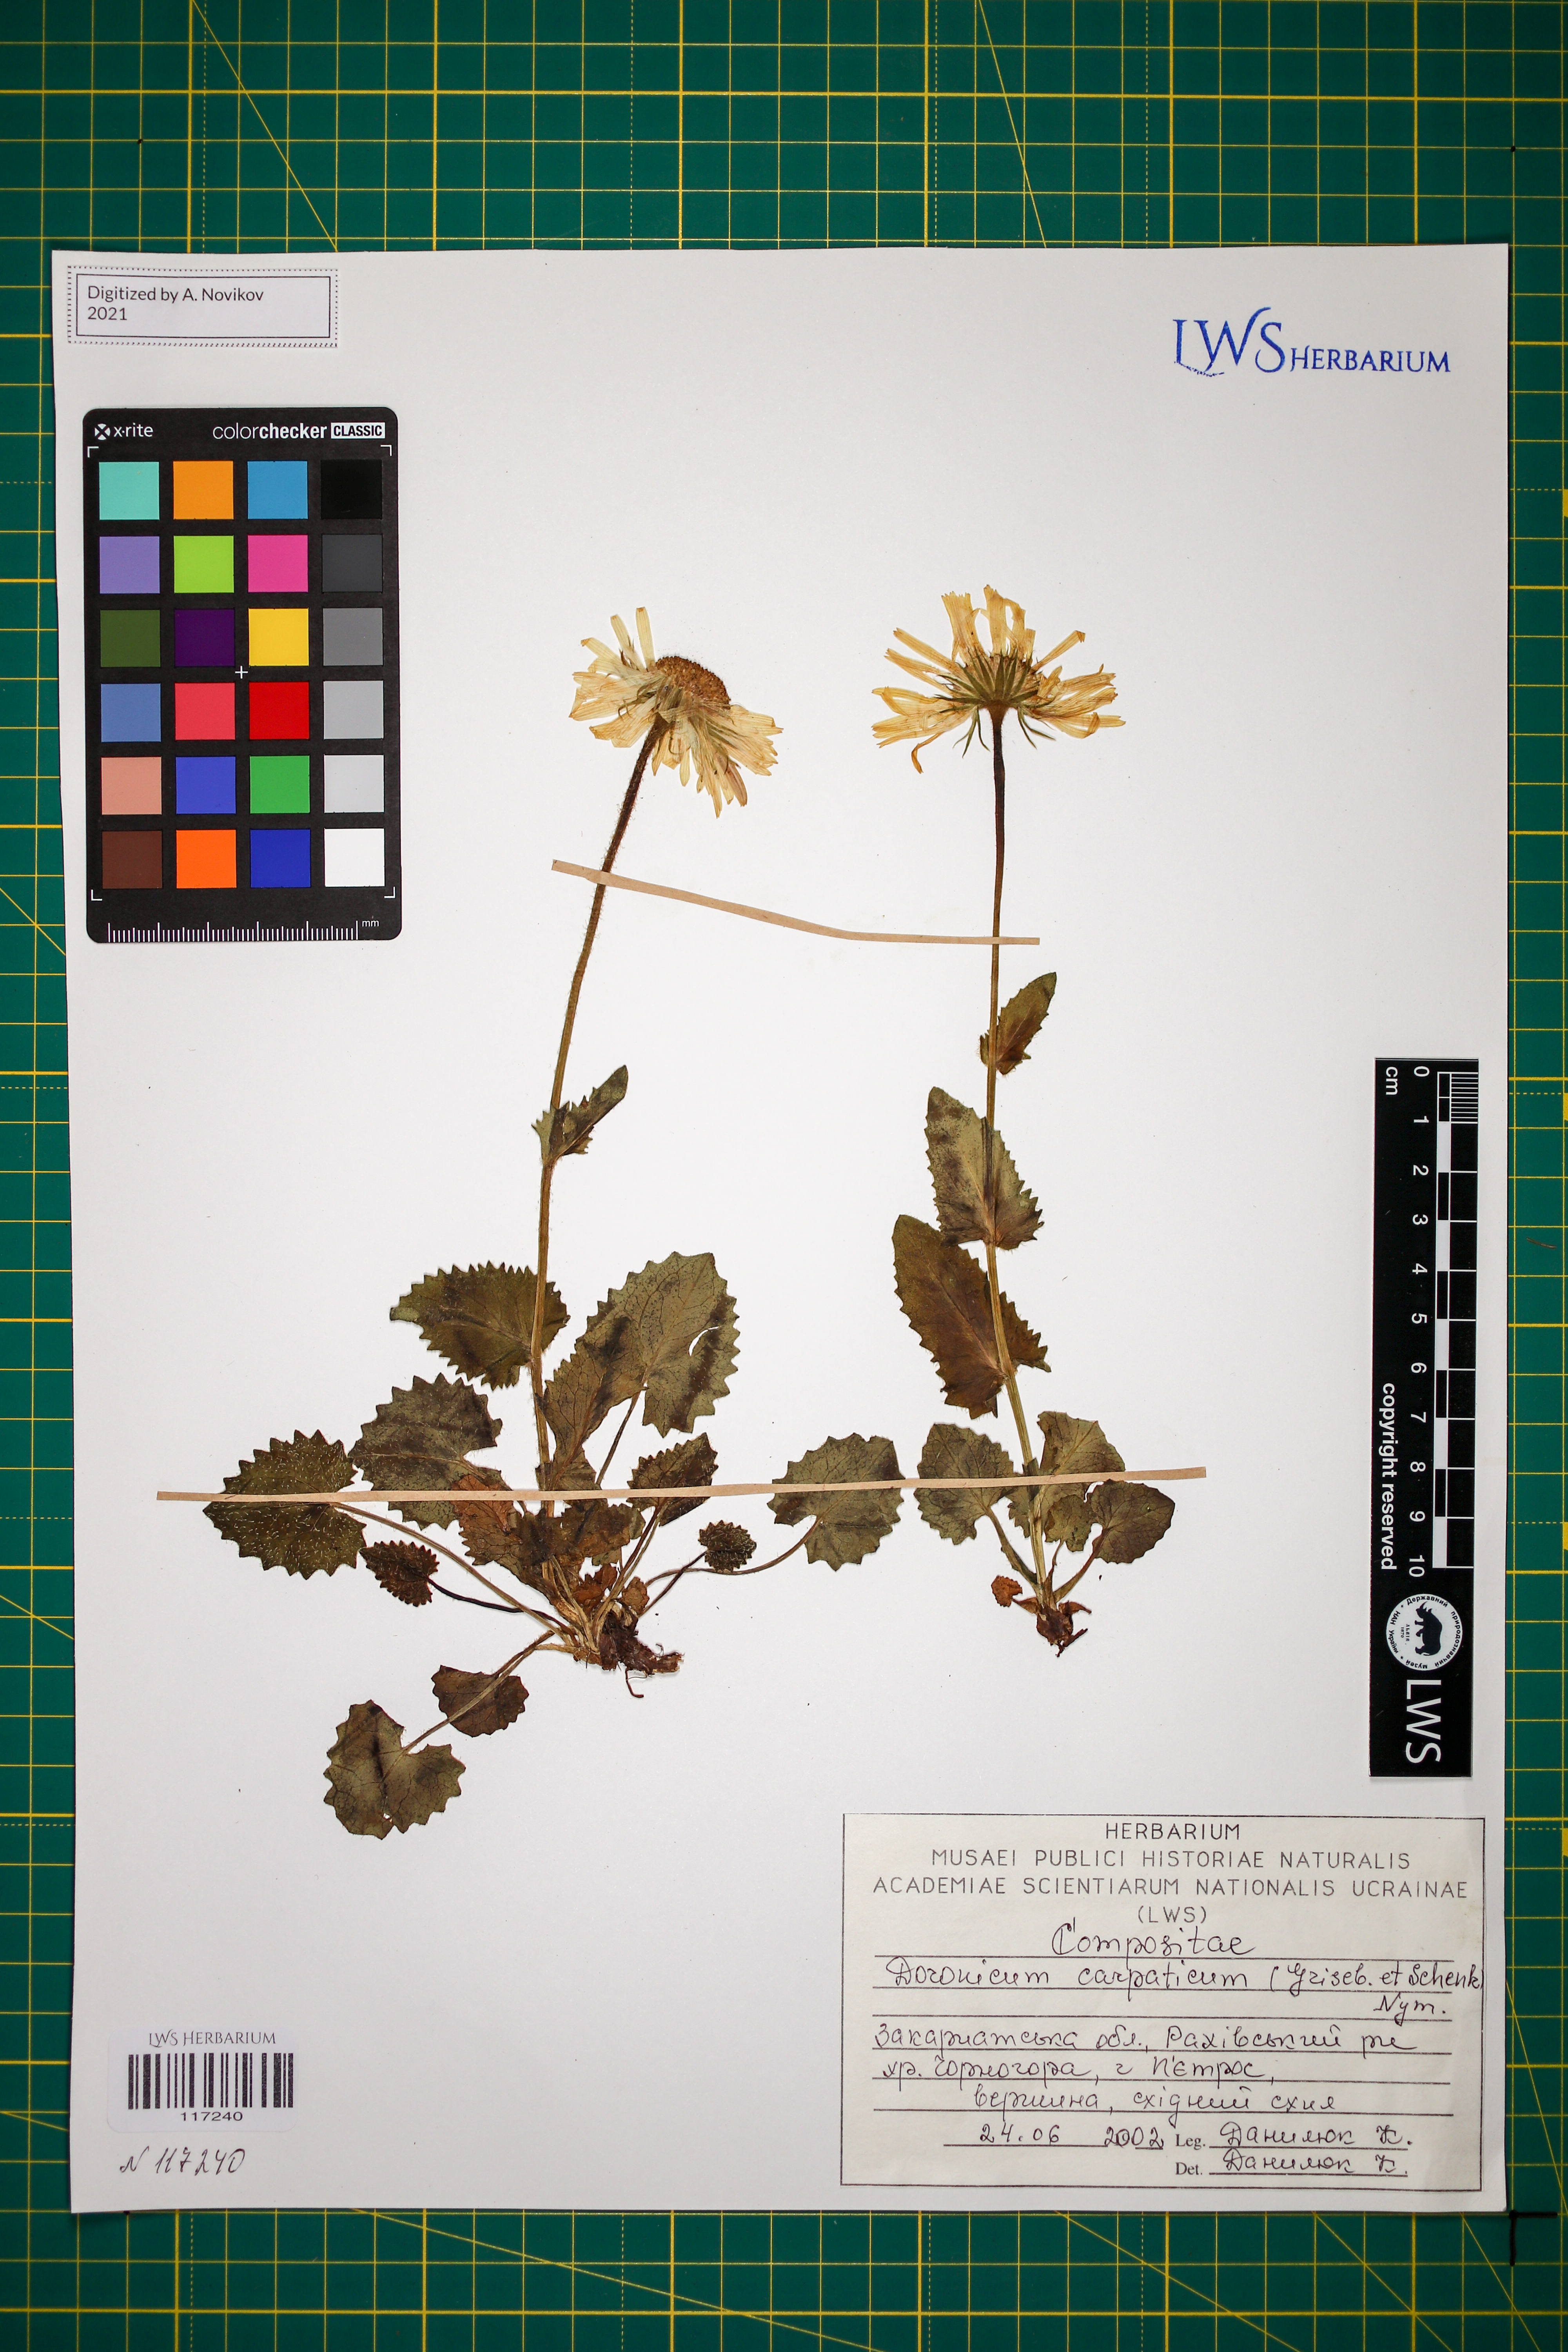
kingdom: Plantae
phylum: Tracheophyta
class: Magnoliopsida
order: Asterales
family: Asteraceae
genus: Doronicum
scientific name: Doronicum carpaticum
